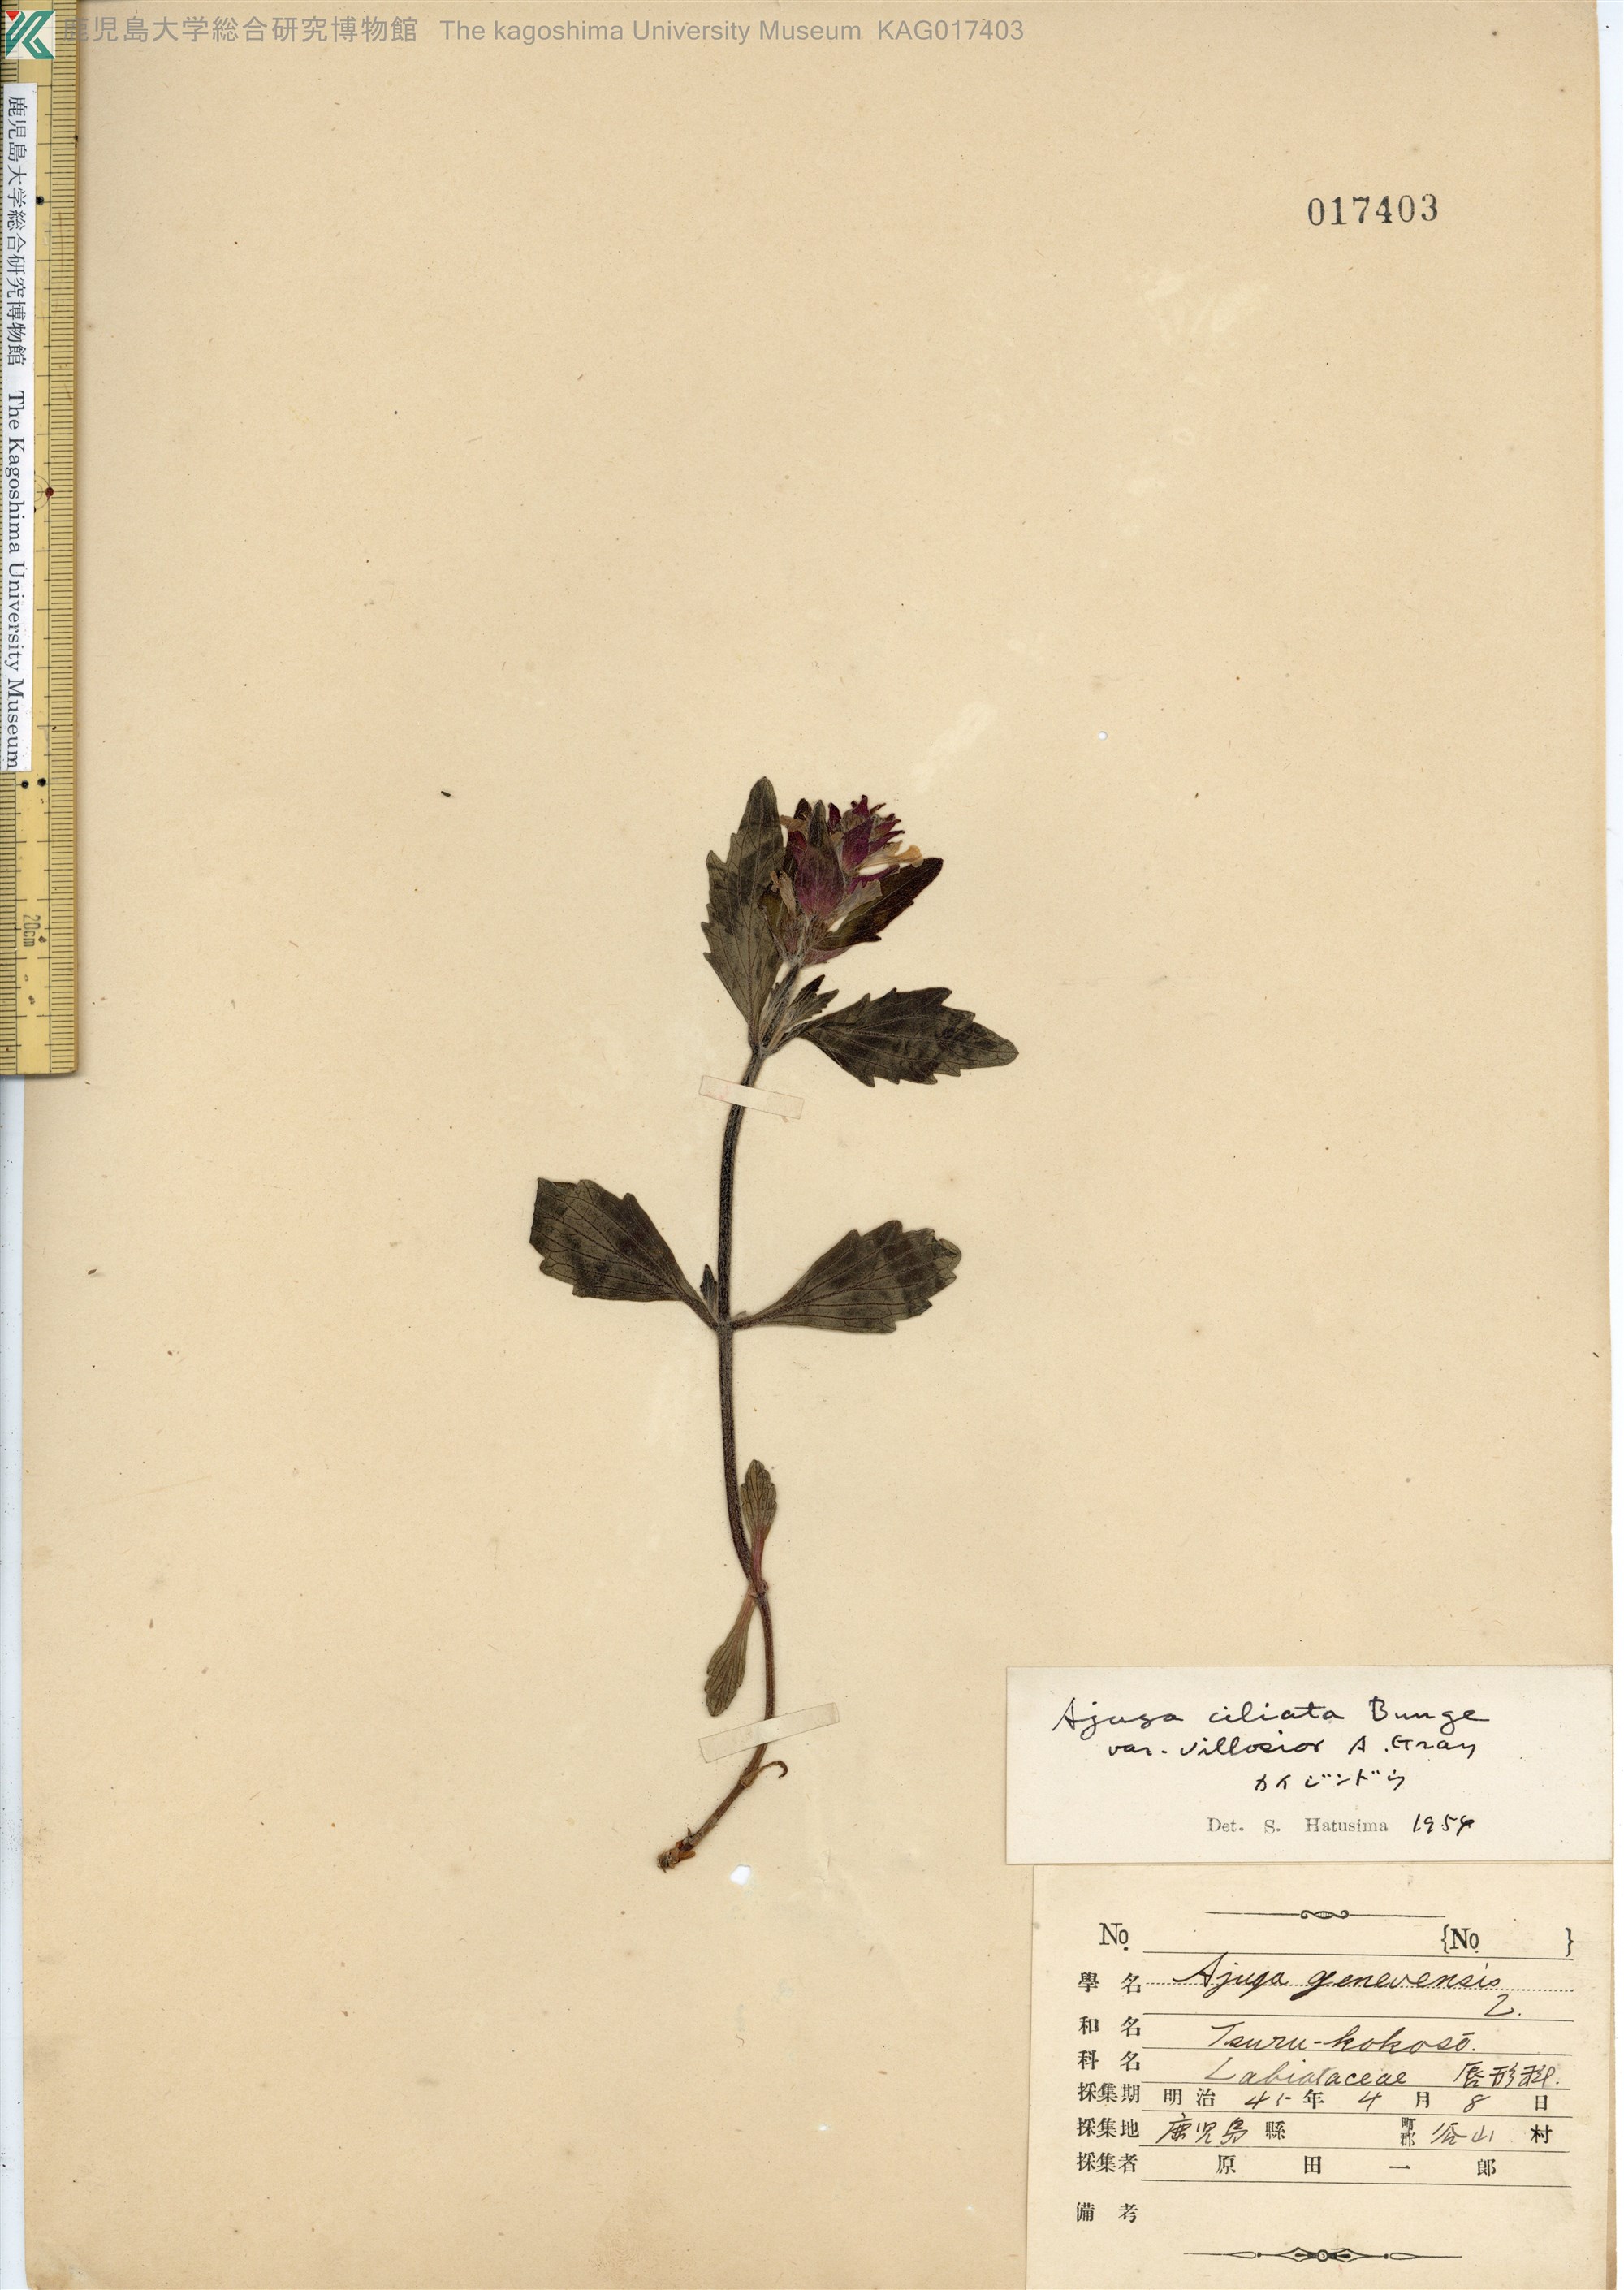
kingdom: Plantae
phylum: Tracheophyta
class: Magnoliopsida
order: Lamiales
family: Lamiaceae
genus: Ajuga
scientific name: Ajuga ciliata
